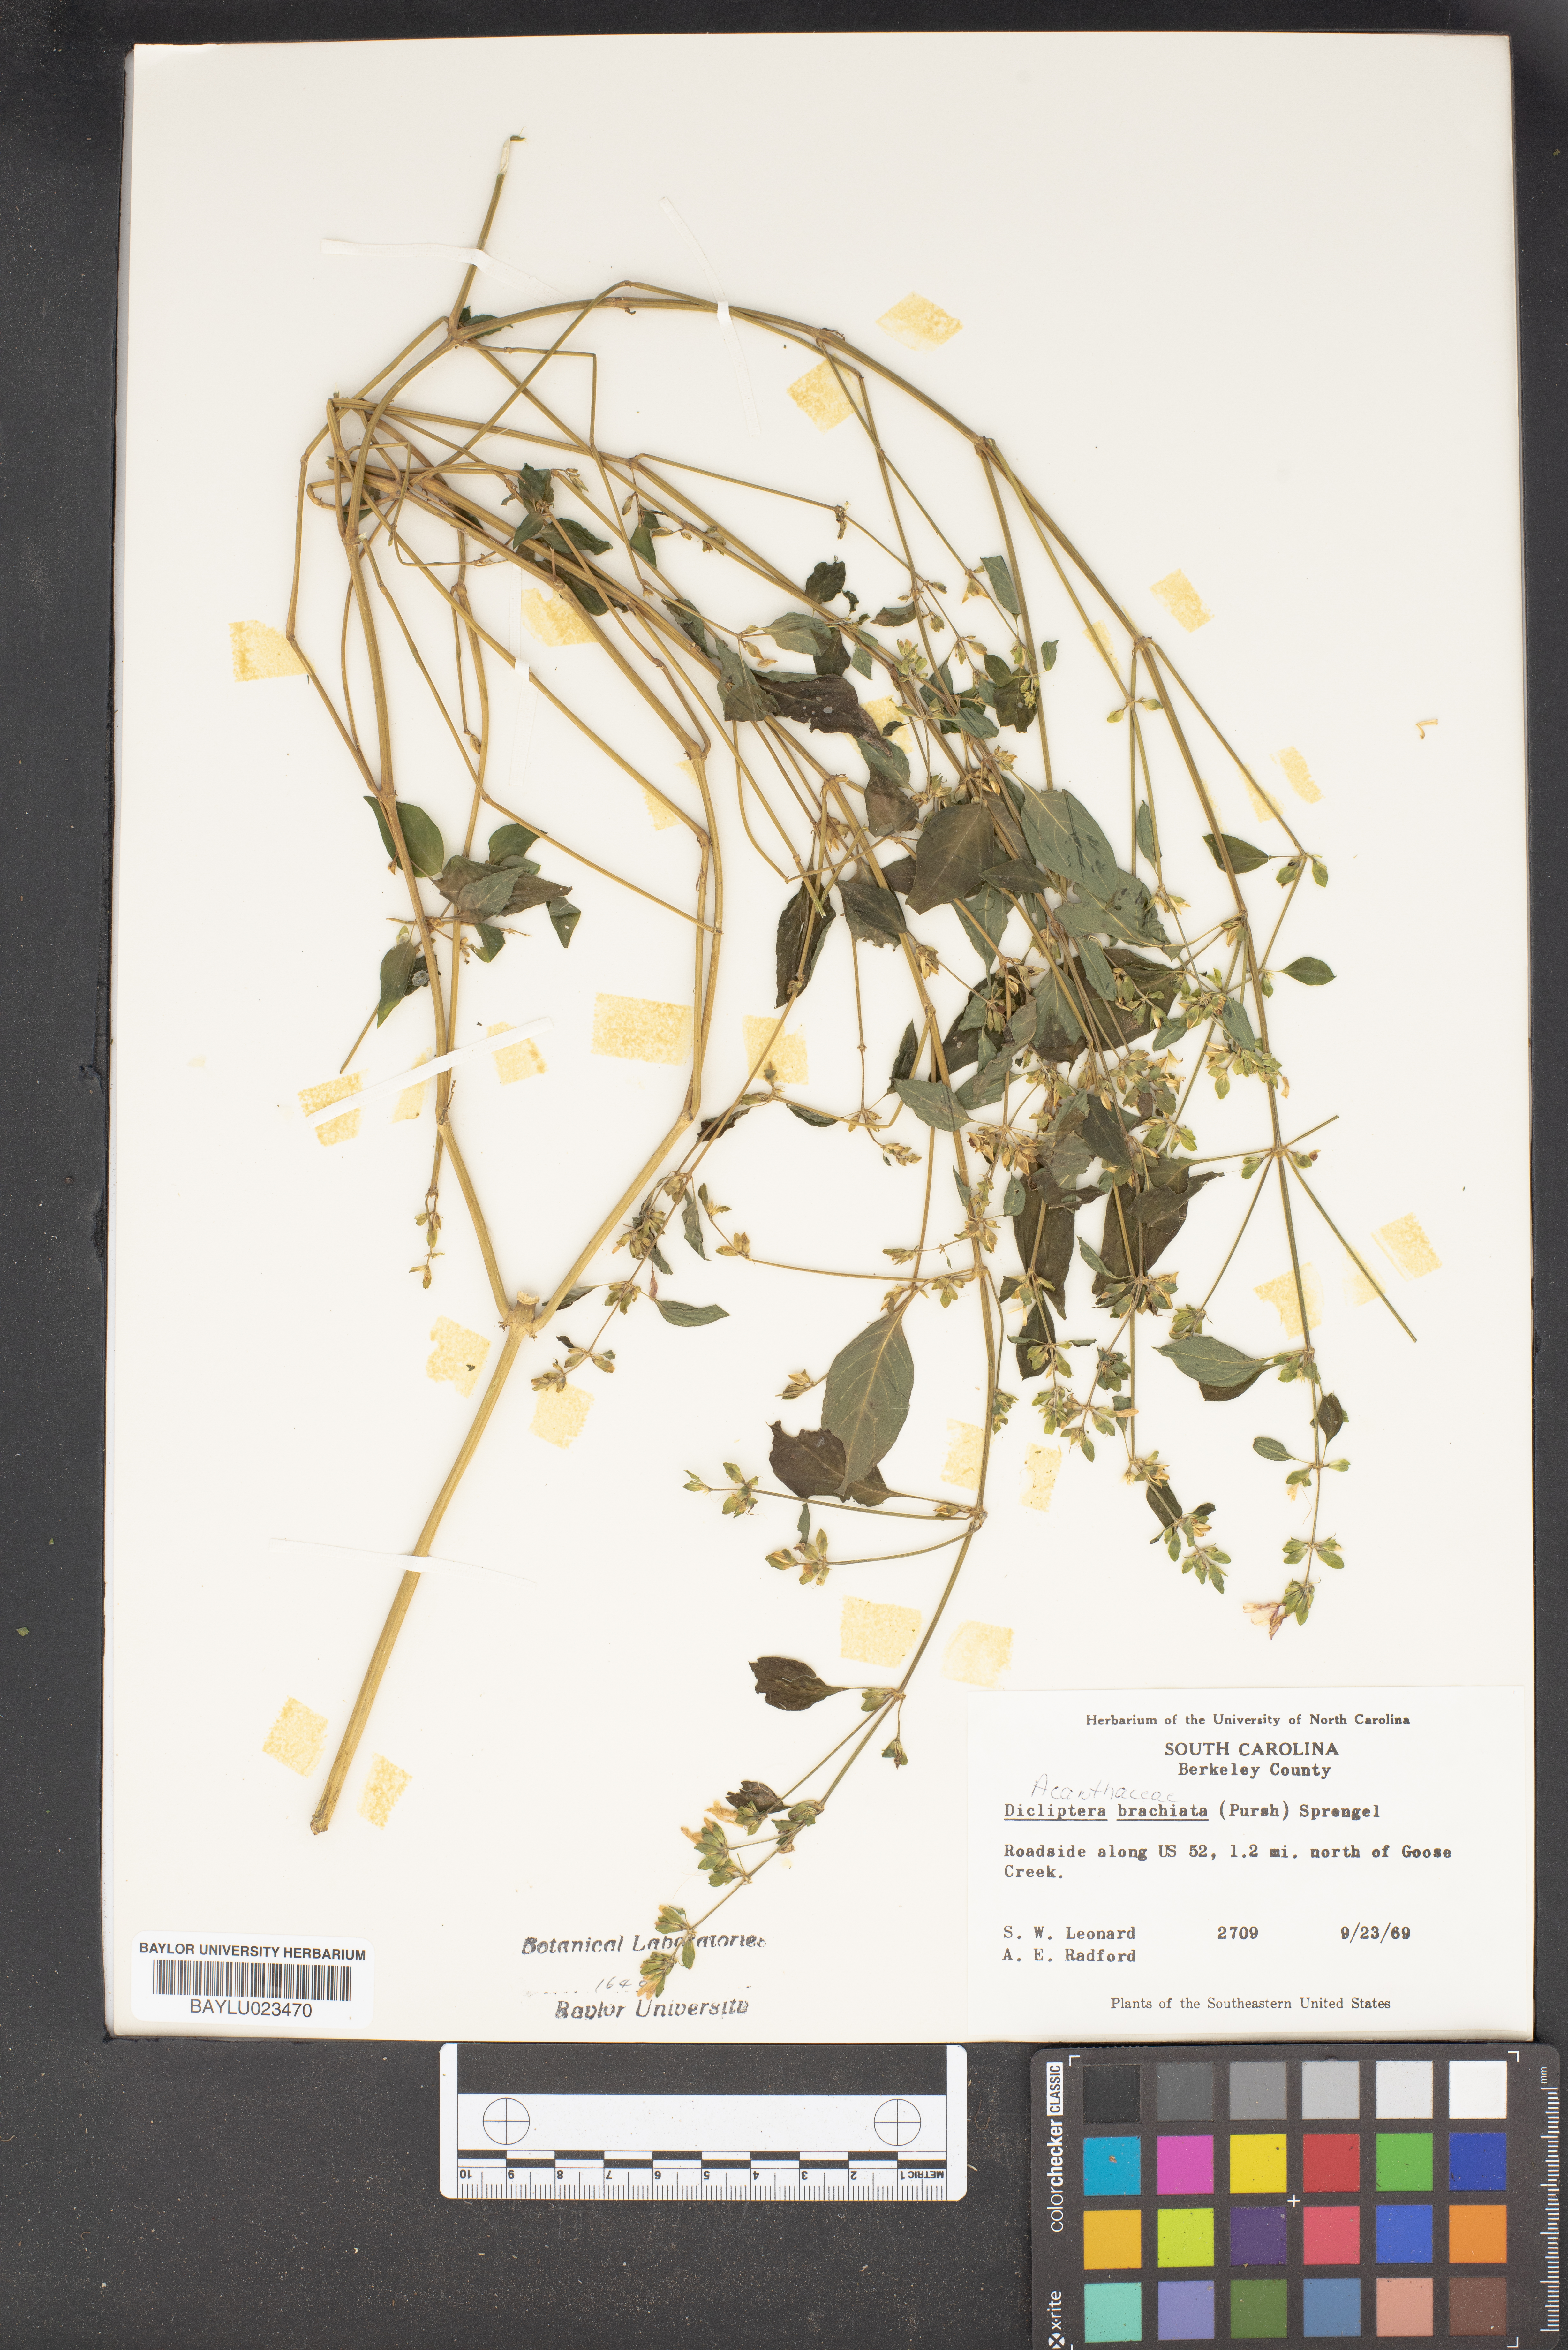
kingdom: Plantae
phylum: Tracheophyta
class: Magnoliopsida
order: Lamiales
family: Acanthaceae
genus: Dicliptera
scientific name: Dicliptera brachiata
